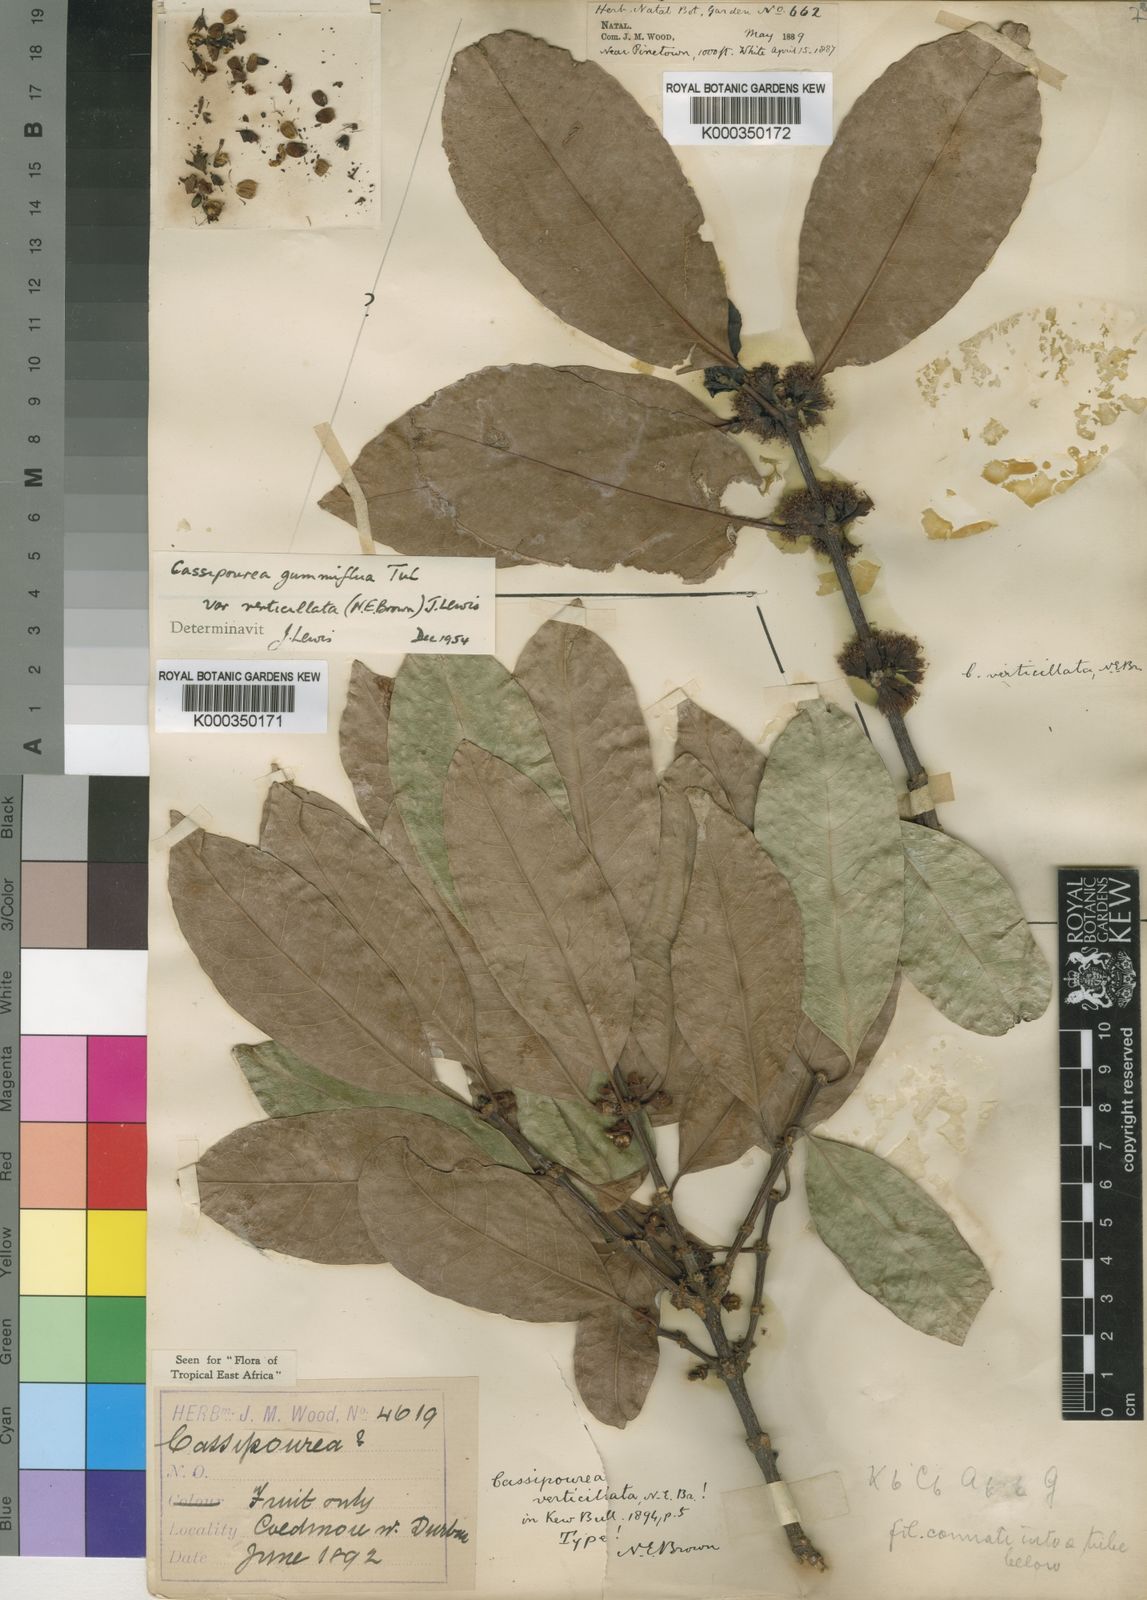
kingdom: Plantae
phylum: Tracheophyta
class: Magnoliopsida
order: Malpighiales
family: Rhizophoraceae
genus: Cassipourea
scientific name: Cassipourea gummiflua
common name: Large-leaved onionwood
